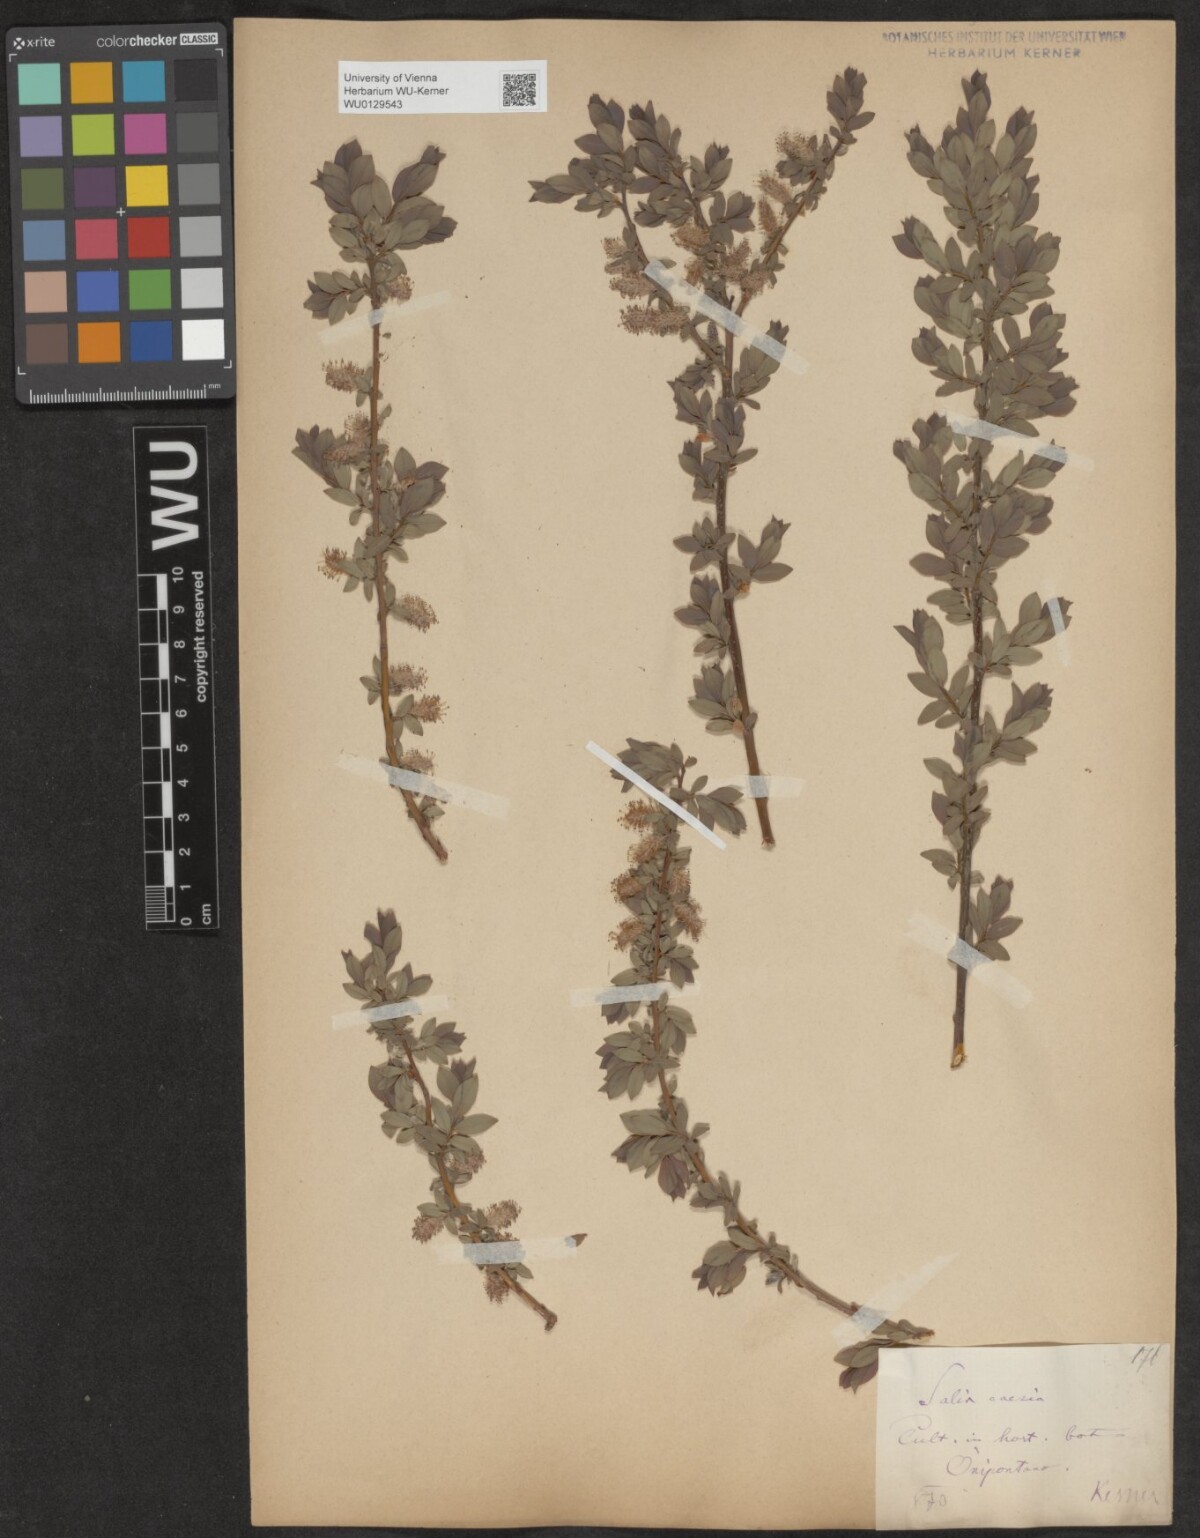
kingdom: Plantae
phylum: Tracheophyta
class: Magnoliopsida
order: Malpighiales
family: Salicaceae
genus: Salix
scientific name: Salix caesia
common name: Blue willow
